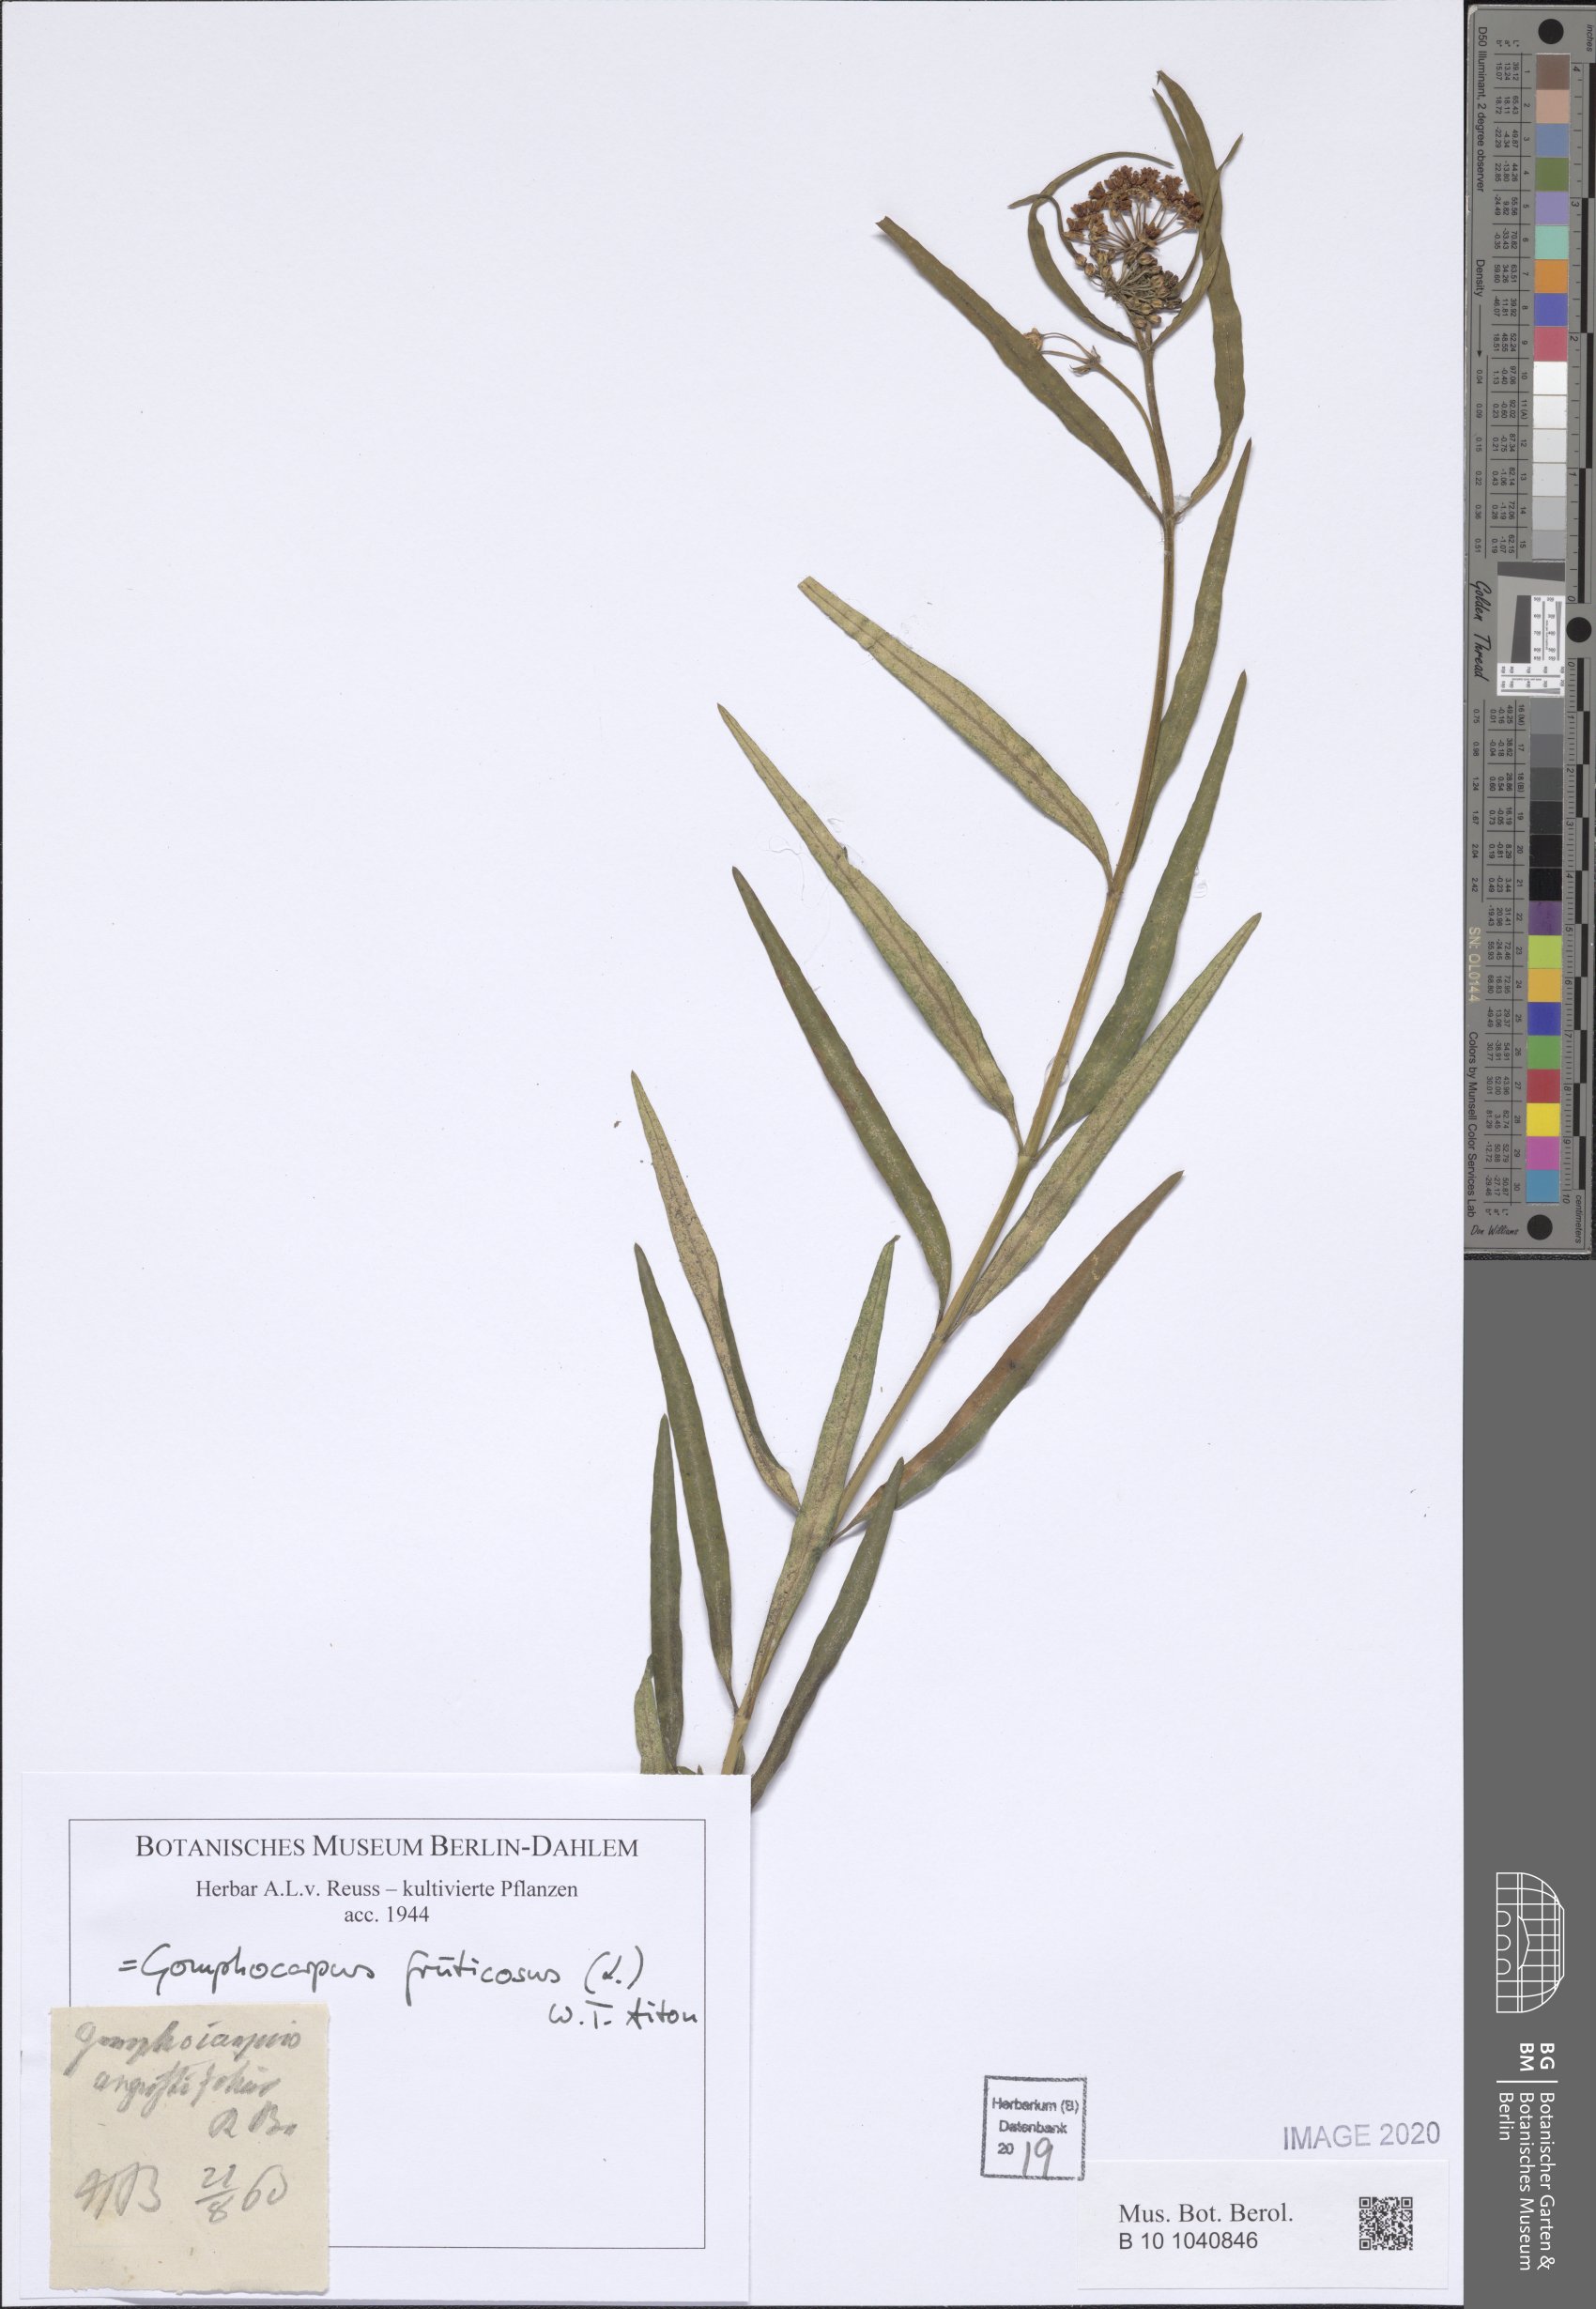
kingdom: Plantae
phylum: Tracheophyta
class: Magnoliopsida
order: Gentianales
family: Apocynaceae
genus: Gomphocarpus
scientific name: Gomphocarpus fruticosus
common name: Milkweed
